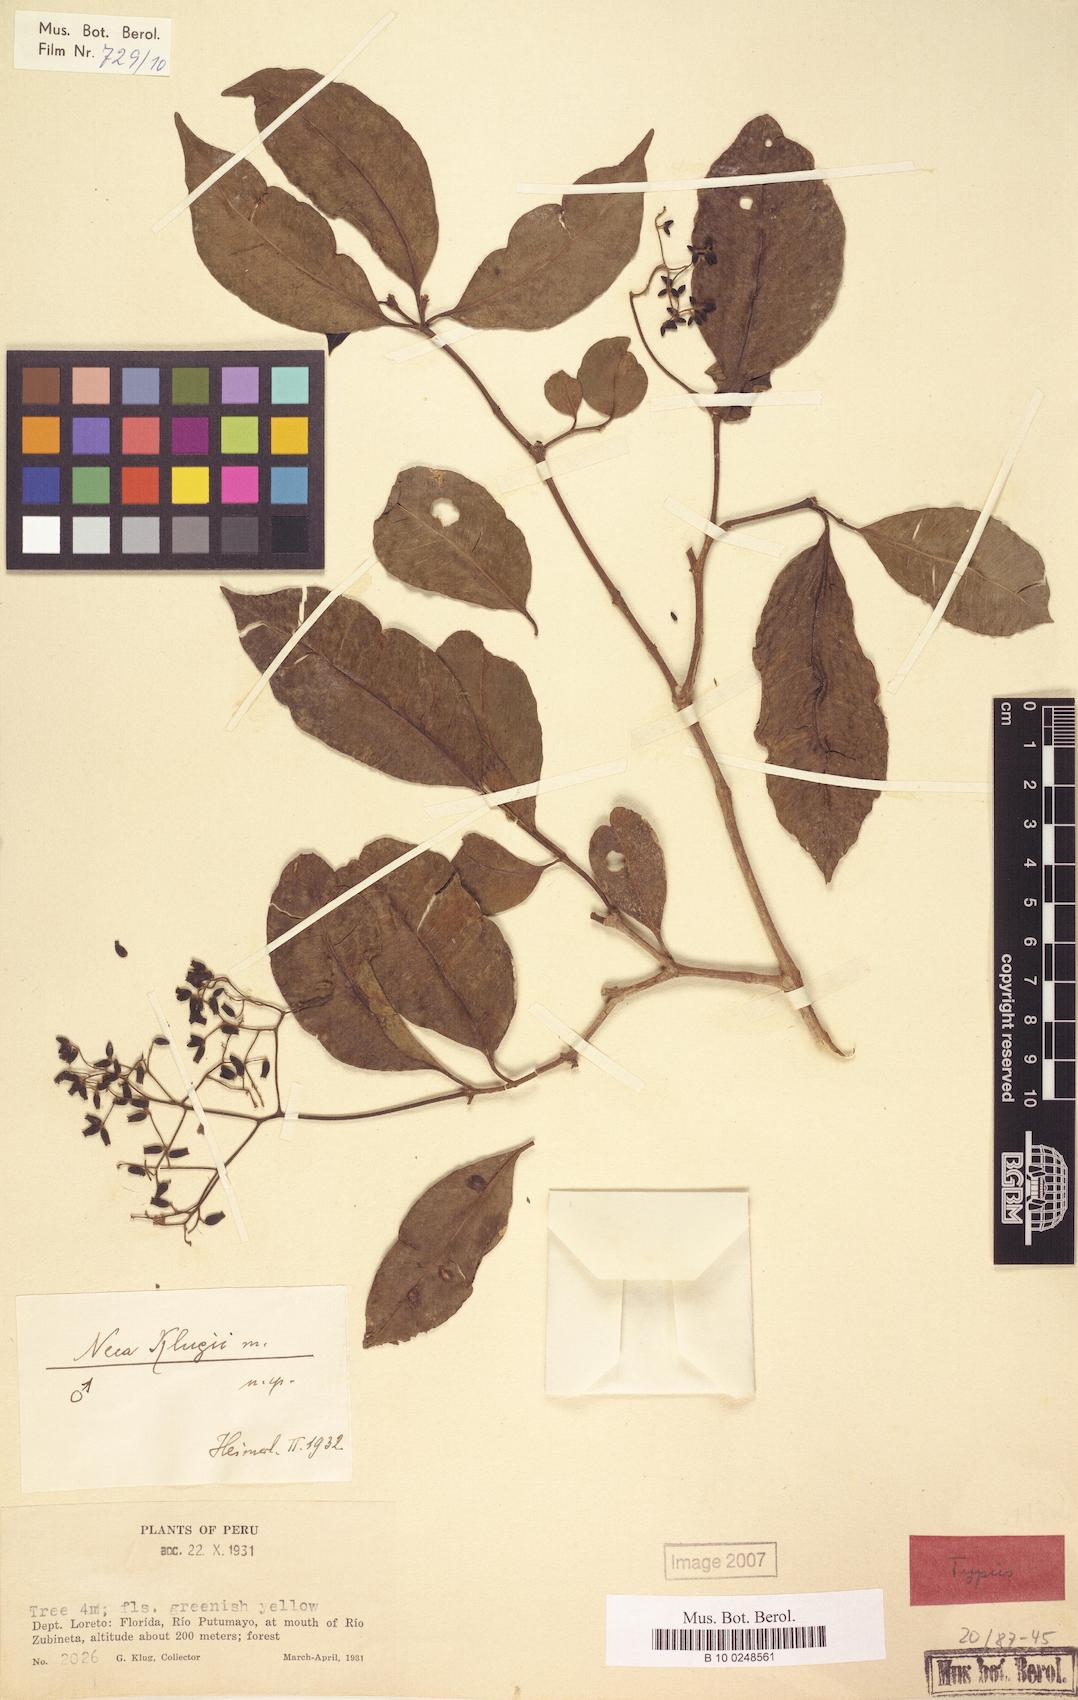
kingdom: Plantae
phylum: Tracheophyta
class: Magnoliopsida
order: Caryophyllales
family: Nyctaginaceae
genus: Neea
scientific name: Neea
